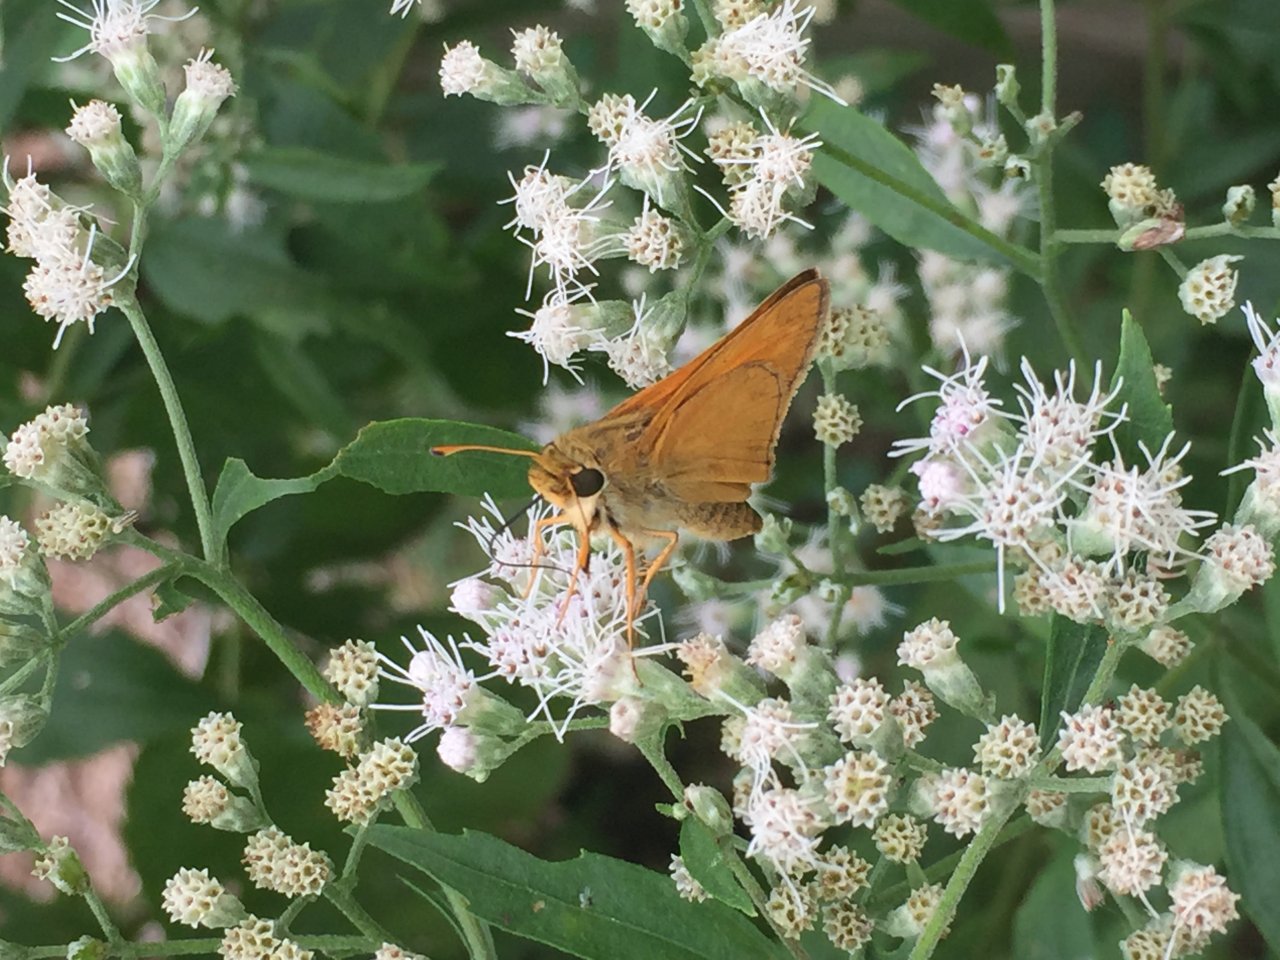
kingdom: Animalia
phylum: Arthropoda
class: Insecta
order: Lepidoptera
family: Hesperiidae
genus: Atalopedes
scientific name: Atalopedes campestris
